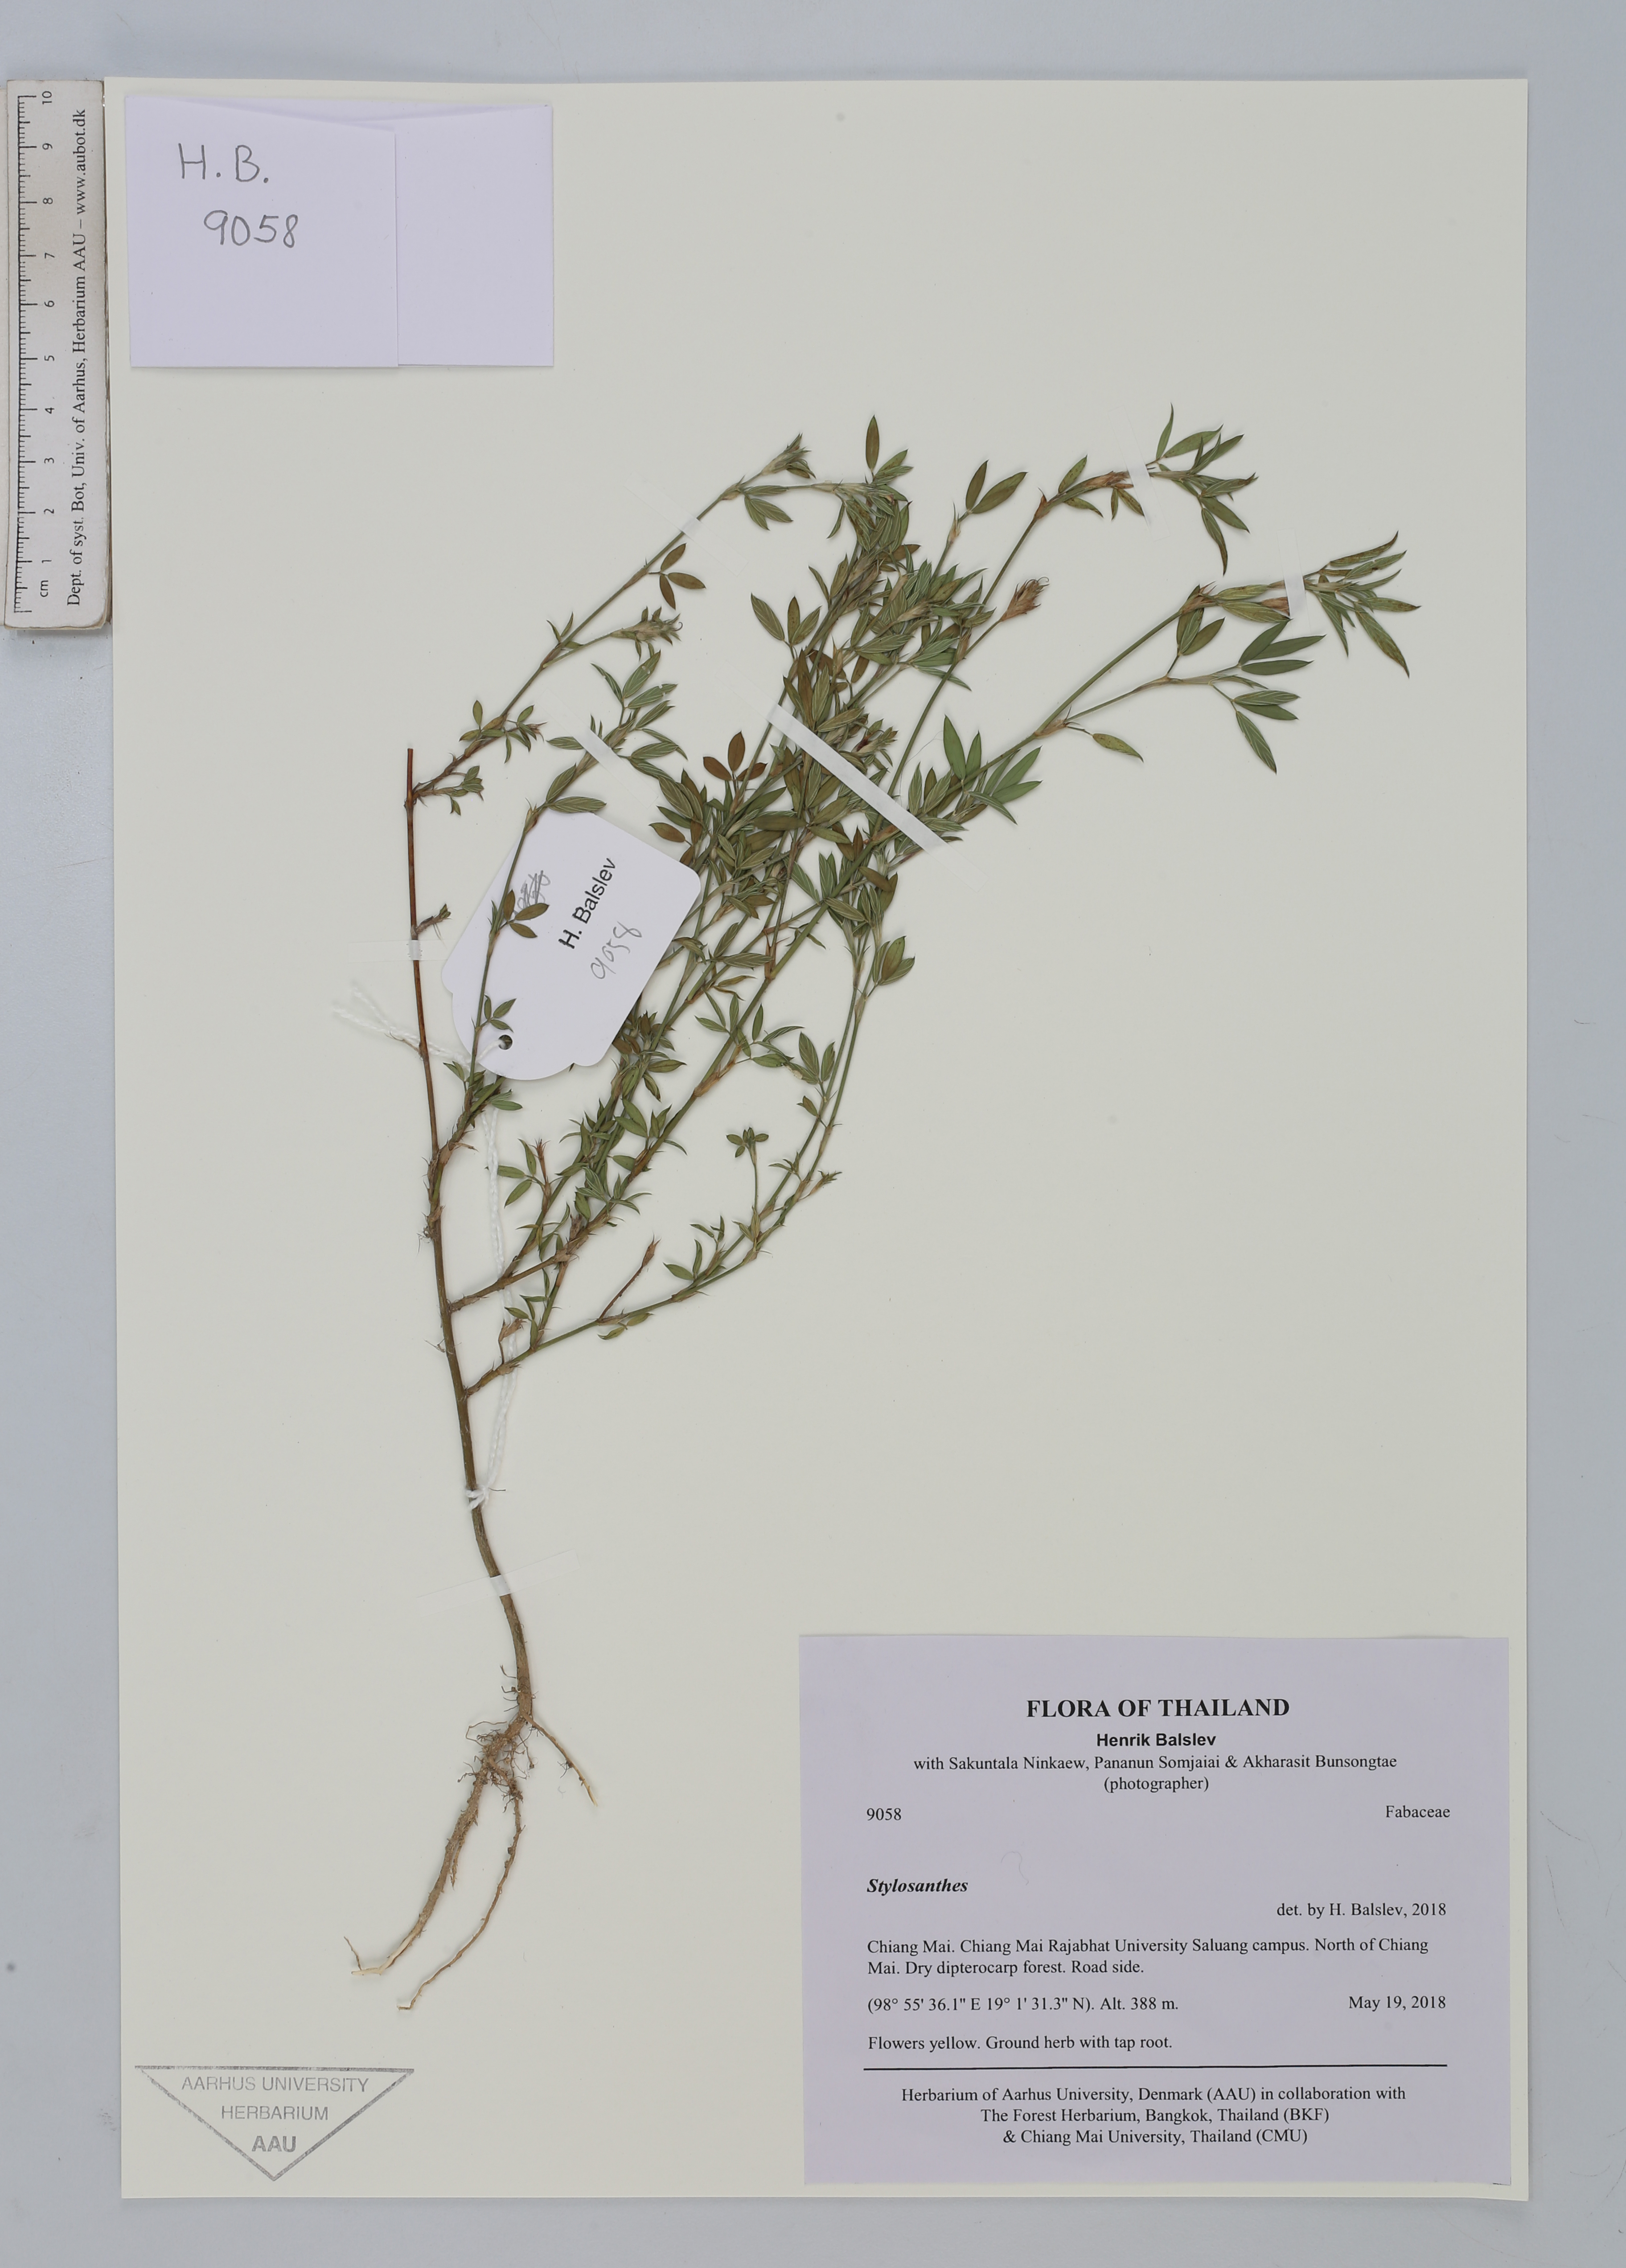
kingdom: Plantae
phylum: Tracheophyta
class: Magnoliopsida
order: Fabales
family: Fabaceae
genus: Stylosanthes
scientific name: Stylosanthes
